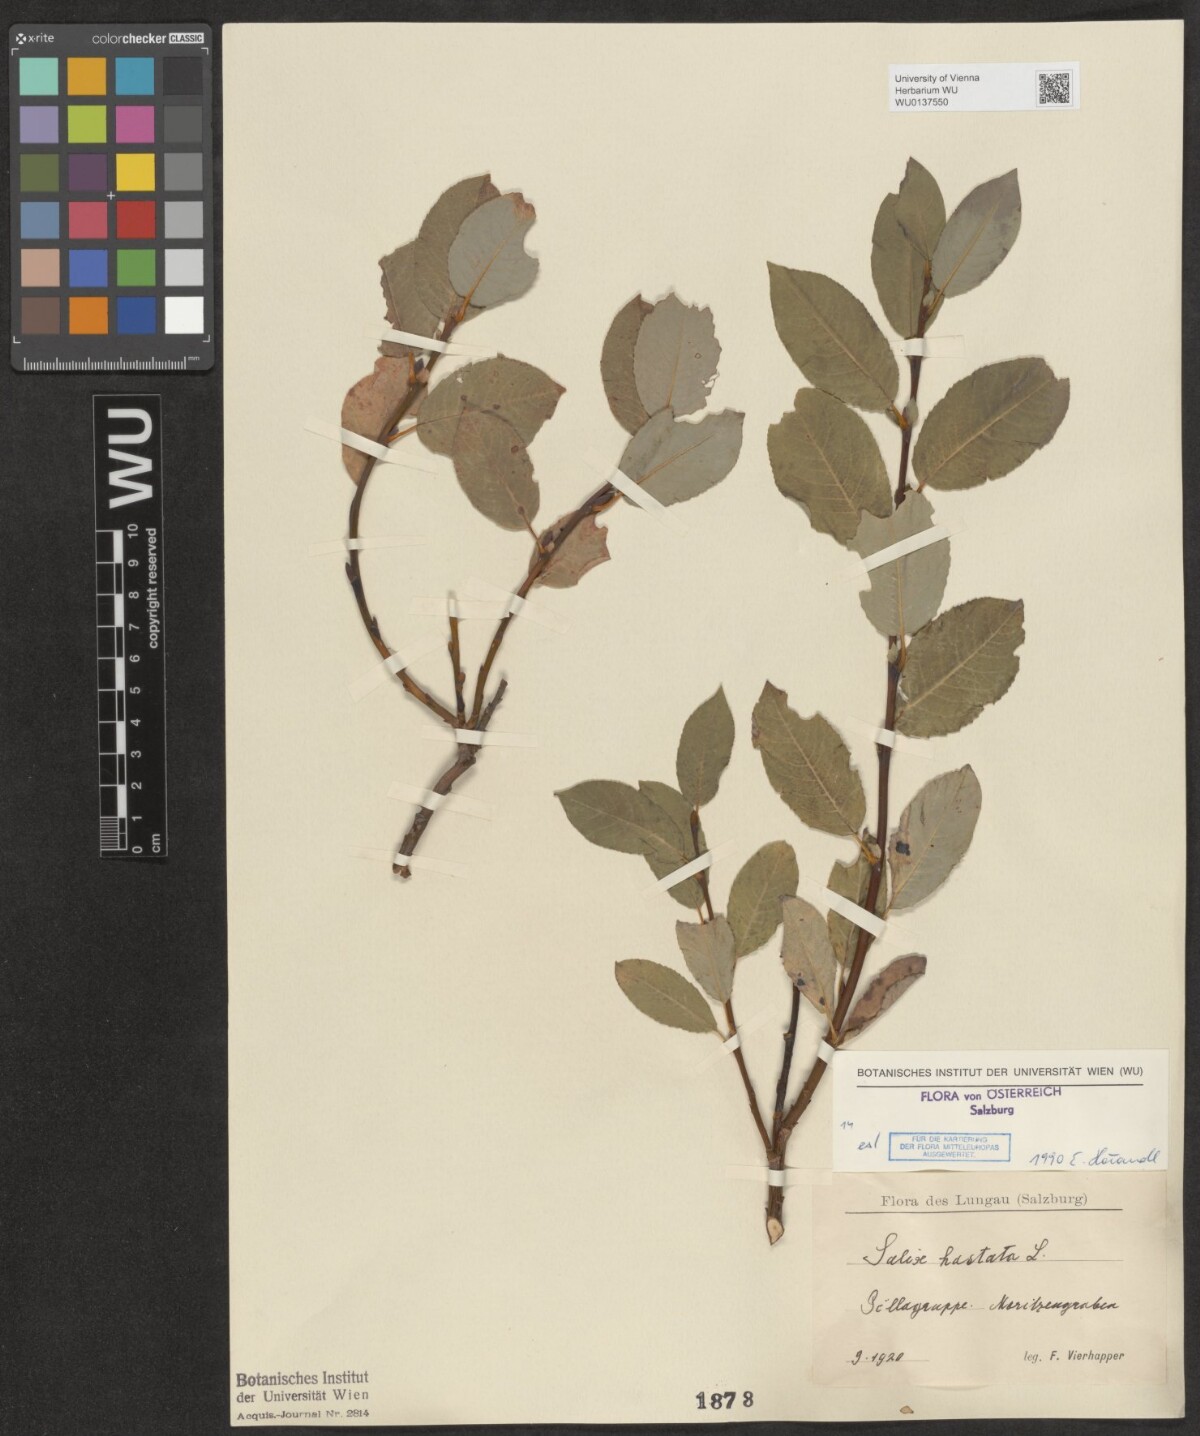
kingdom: Plantae
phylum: Tracheophyta
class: Magnoliopsida
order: Malpighiales
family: Salicaceae
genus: Salix
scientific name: Salix hastata
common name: Halberd willow
